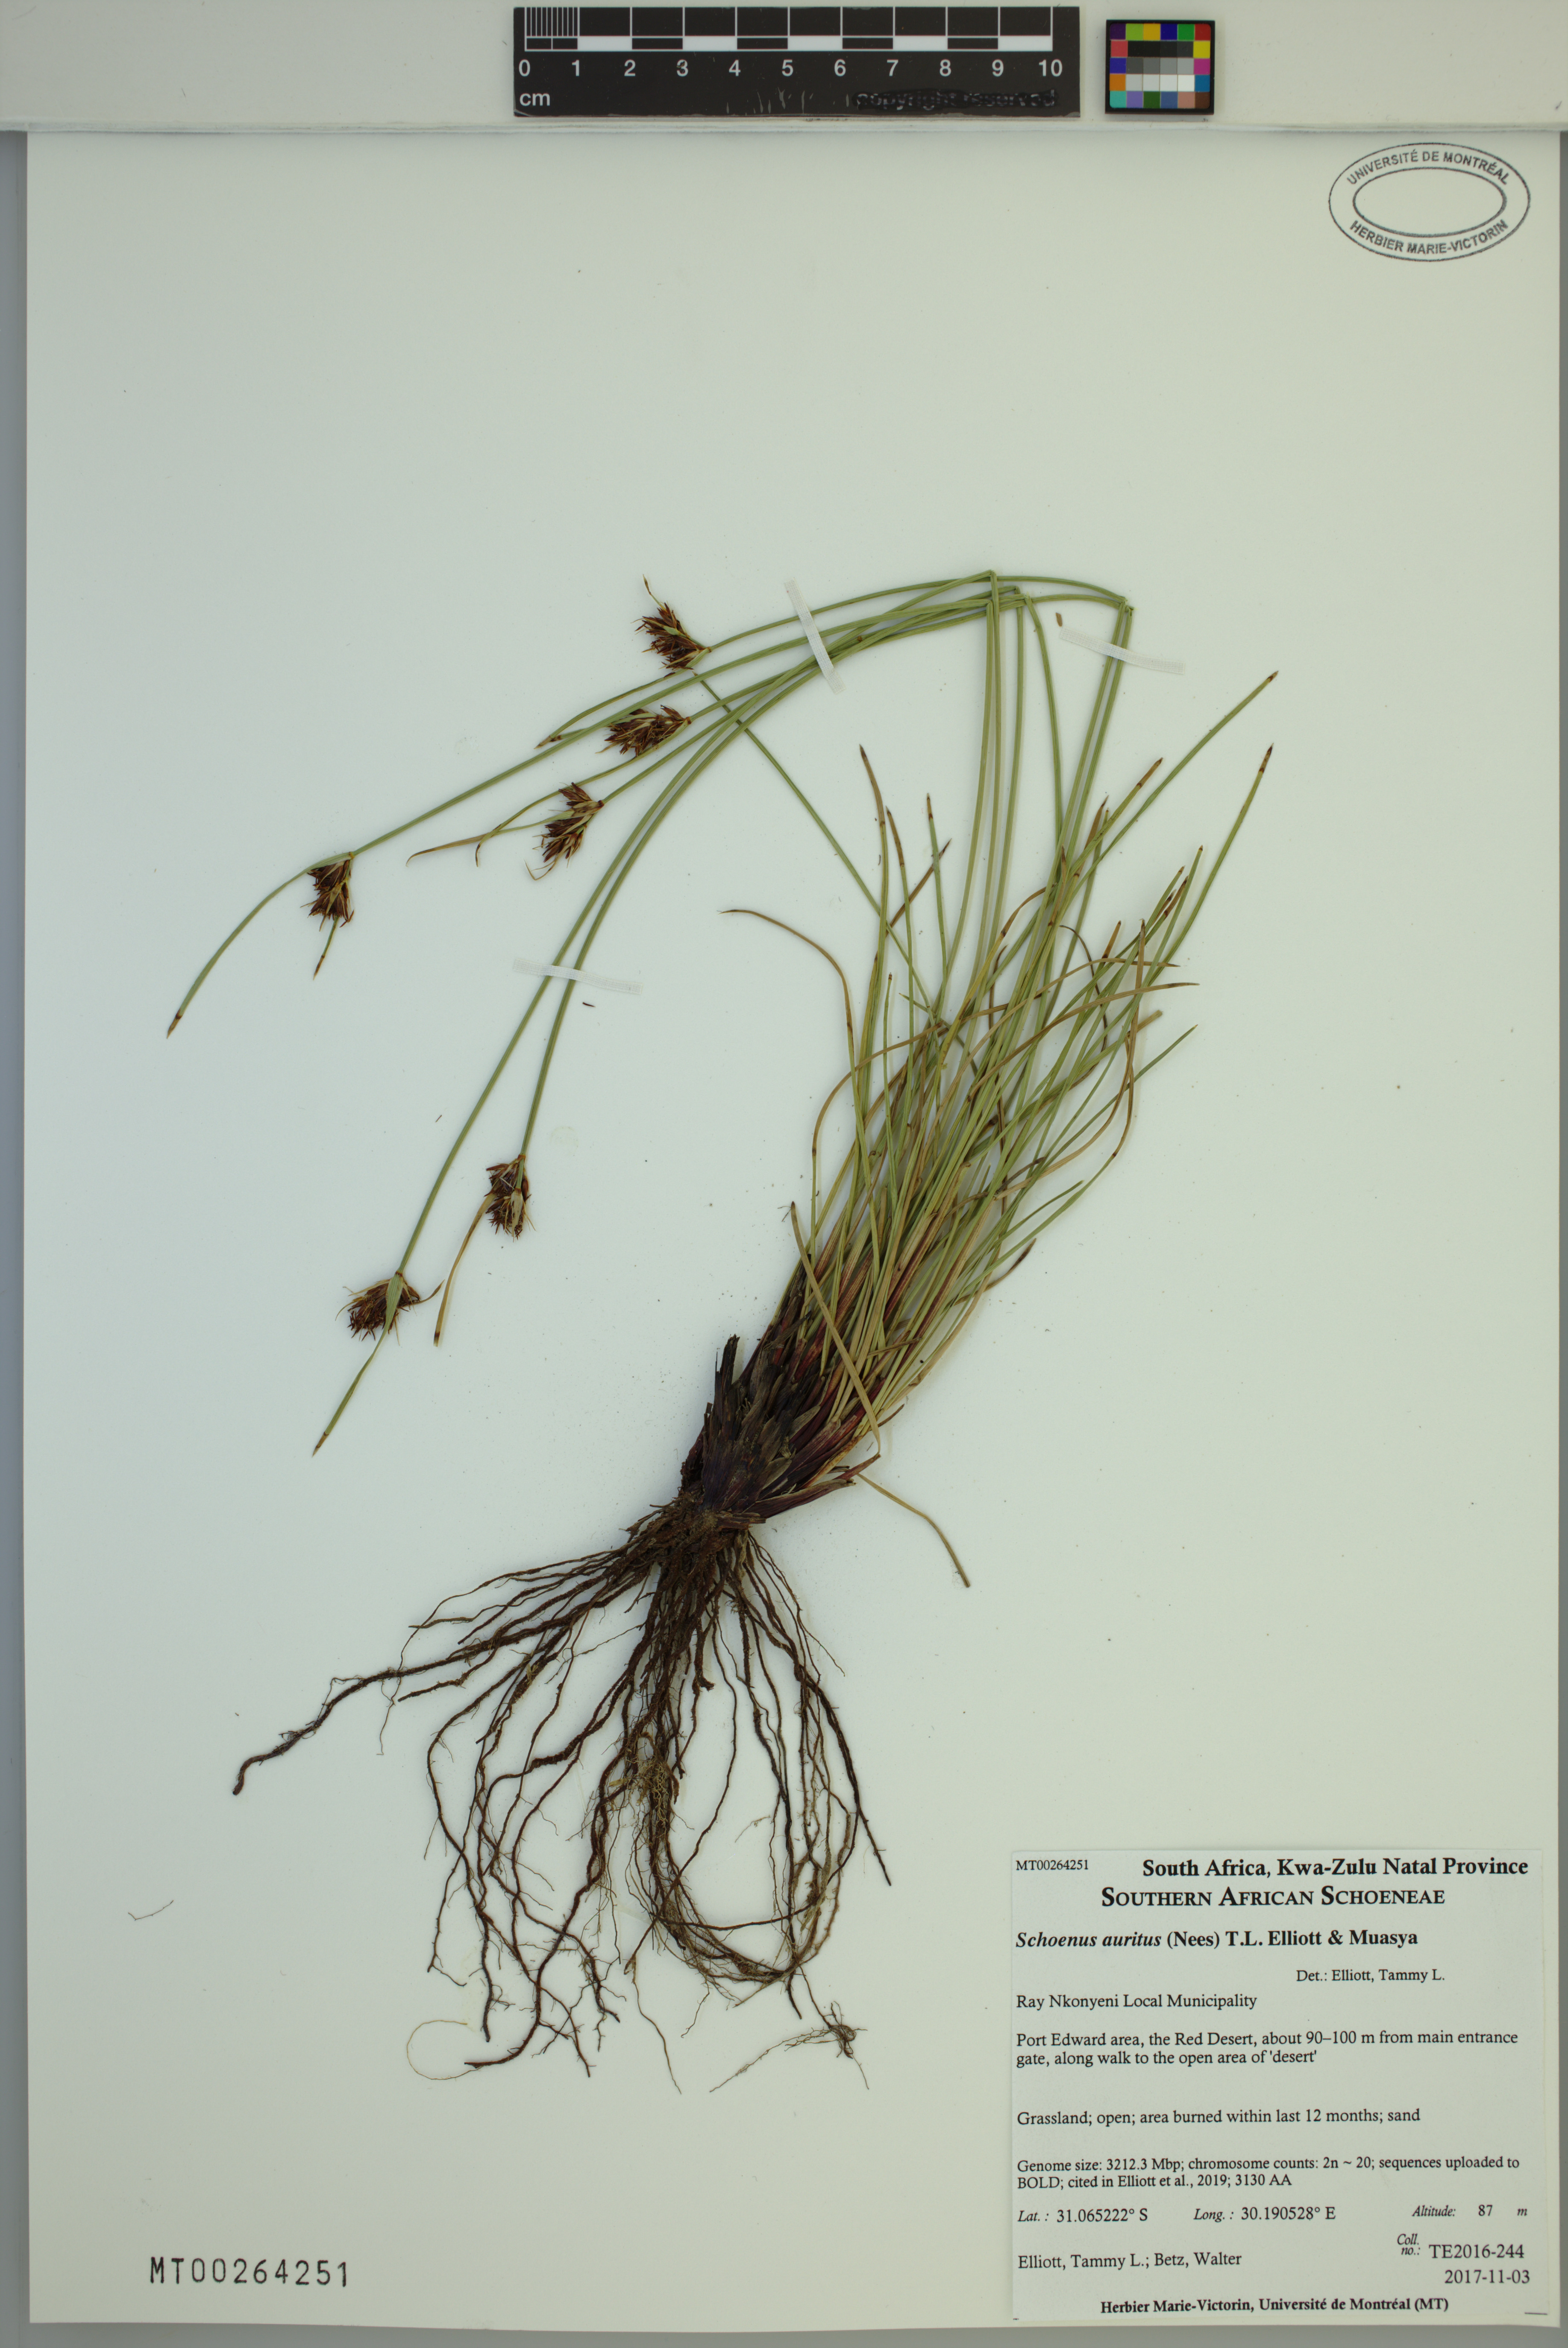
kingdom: Plantae
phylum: Tracheophyta
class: Liliopsida
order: Poales
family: Cyperaceae
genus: Schoenus
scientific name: Schoenus auritus
